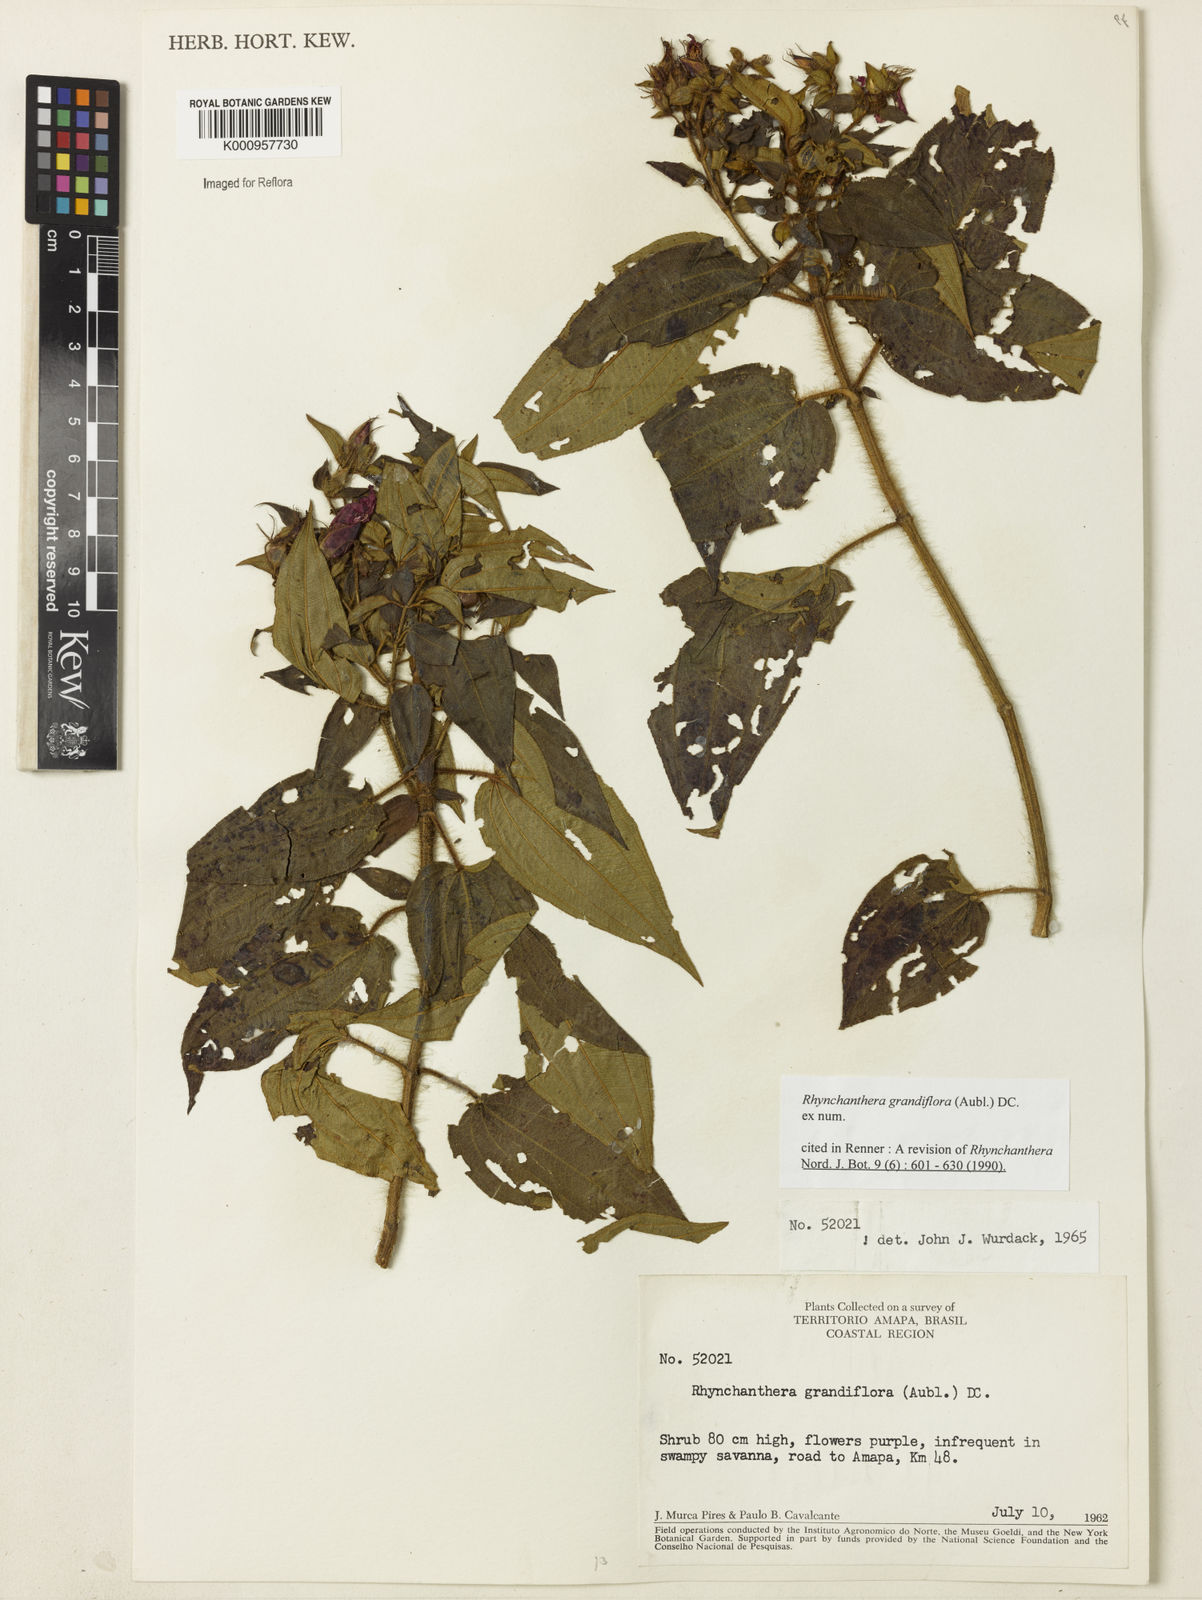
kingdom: Plantae
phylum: Tracheophyta
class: Magnoliopsida
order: Myrtales
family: Melastomataceae
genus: Rhynchanthera
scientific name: Rhynchanthera grandiflora
